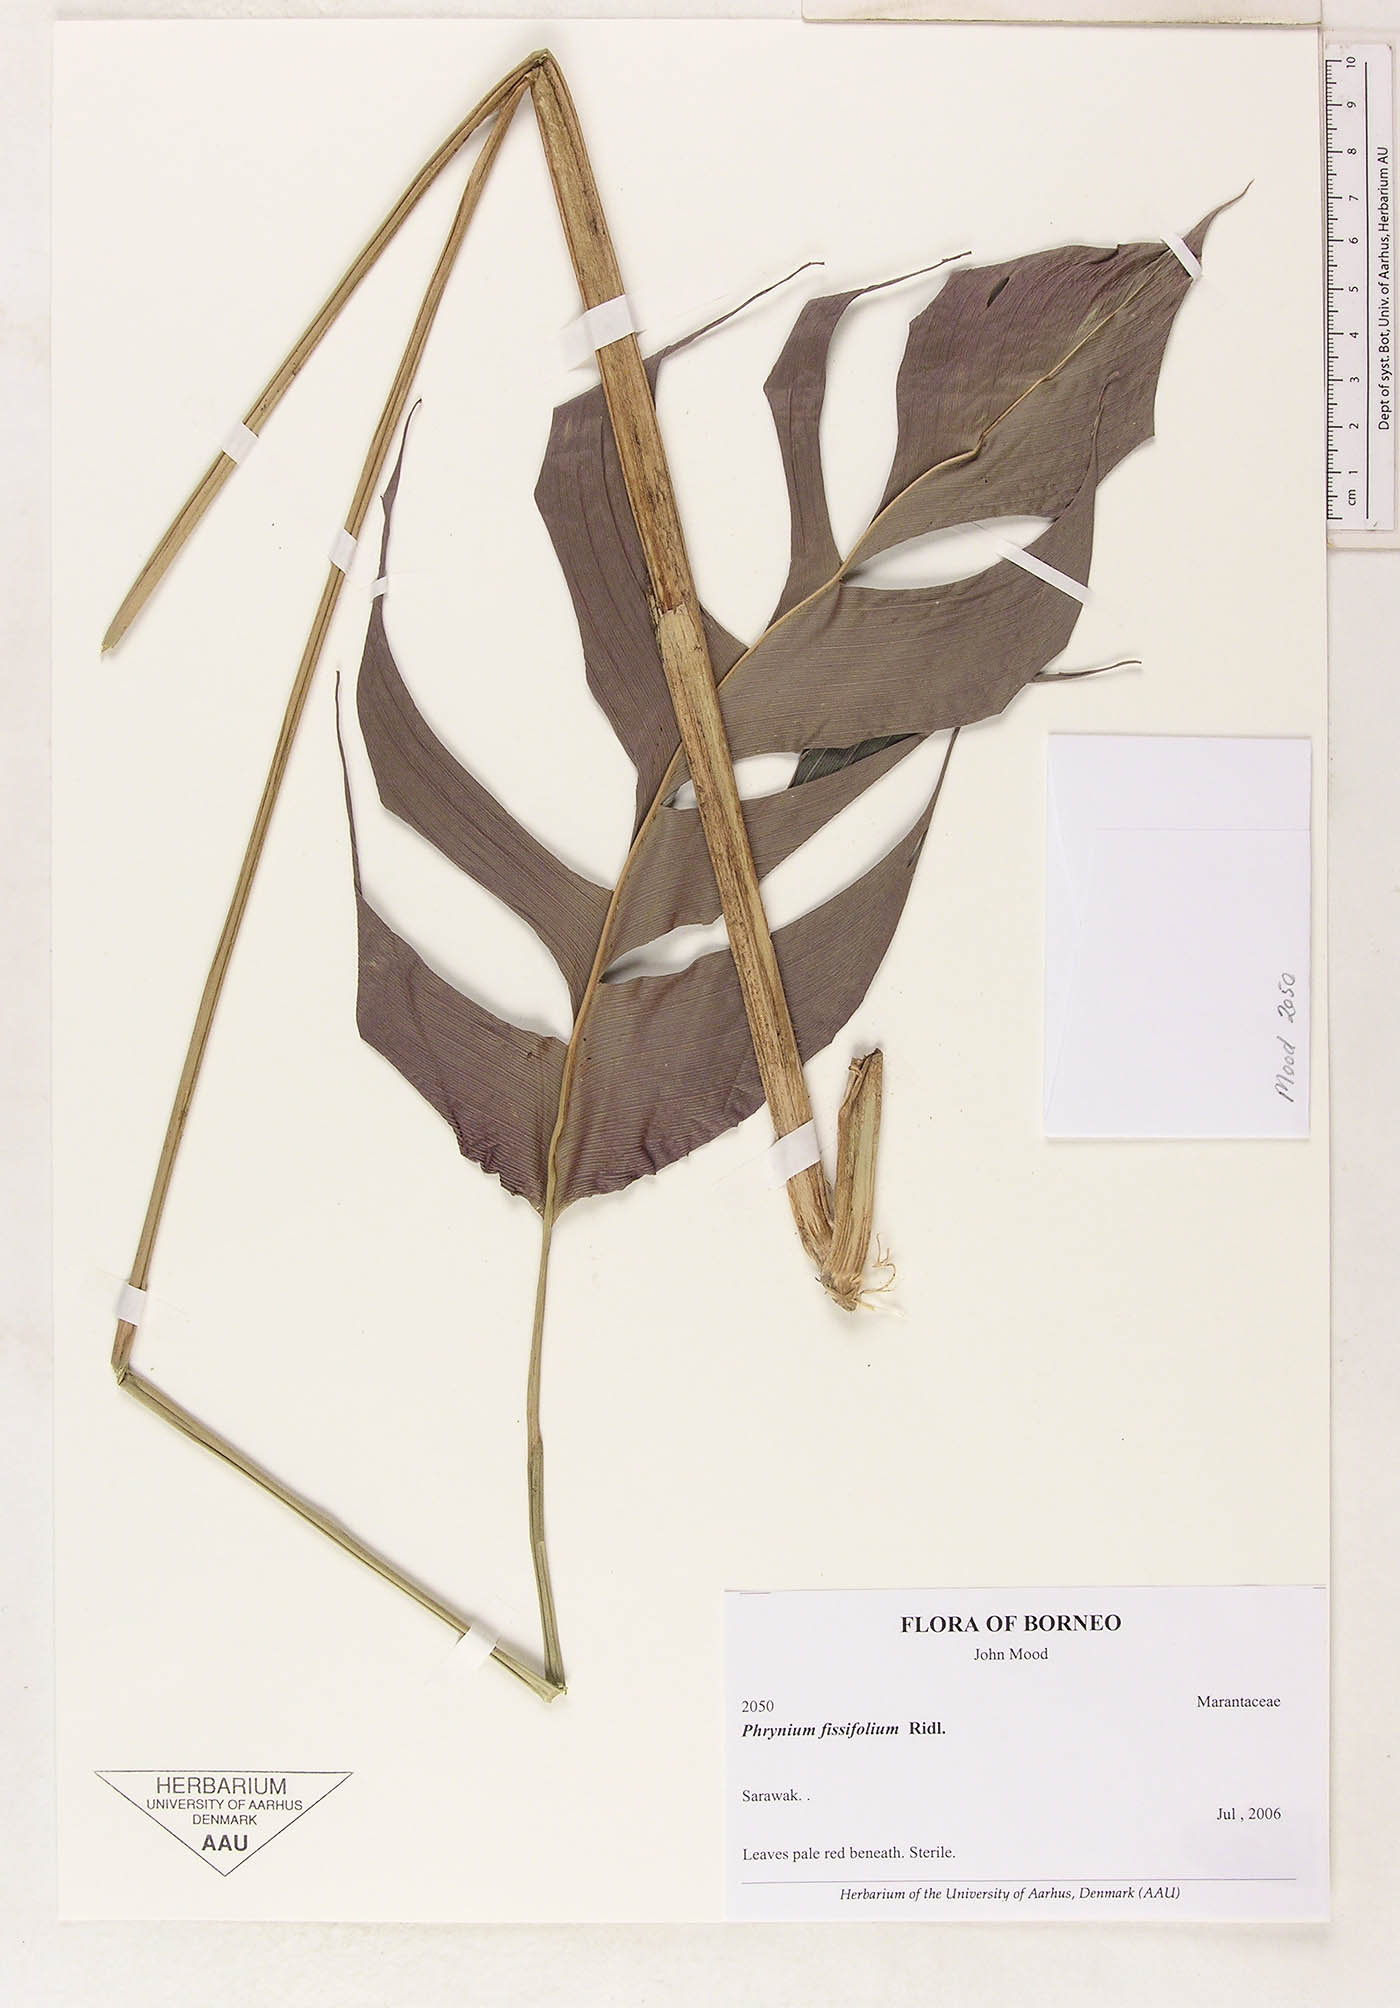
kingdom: Plantae
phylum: Tracheophyta
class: Liliopsida
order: Zingiberales
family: Marantaceae
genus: Phrynium
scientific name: Phrynium fissifolium
